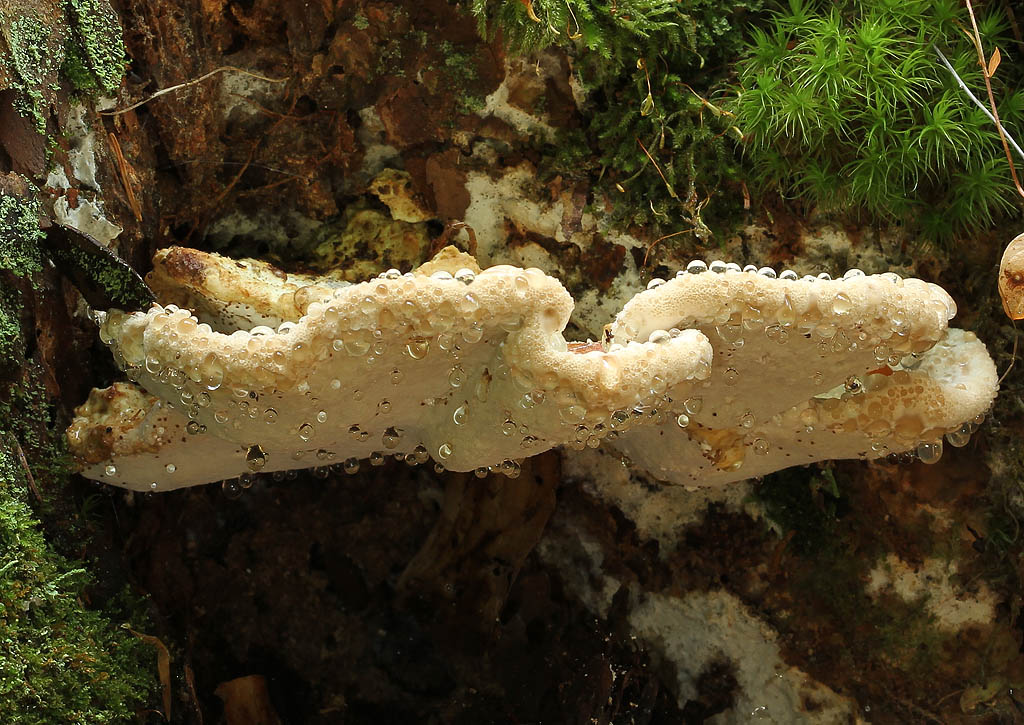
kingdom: Fungi
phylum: Basidiomycota
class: Agaricomycetes
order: Polyporales
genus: Calcipostia
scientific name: Calcipostia guttulata
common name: dråbe-kødporesvamp
